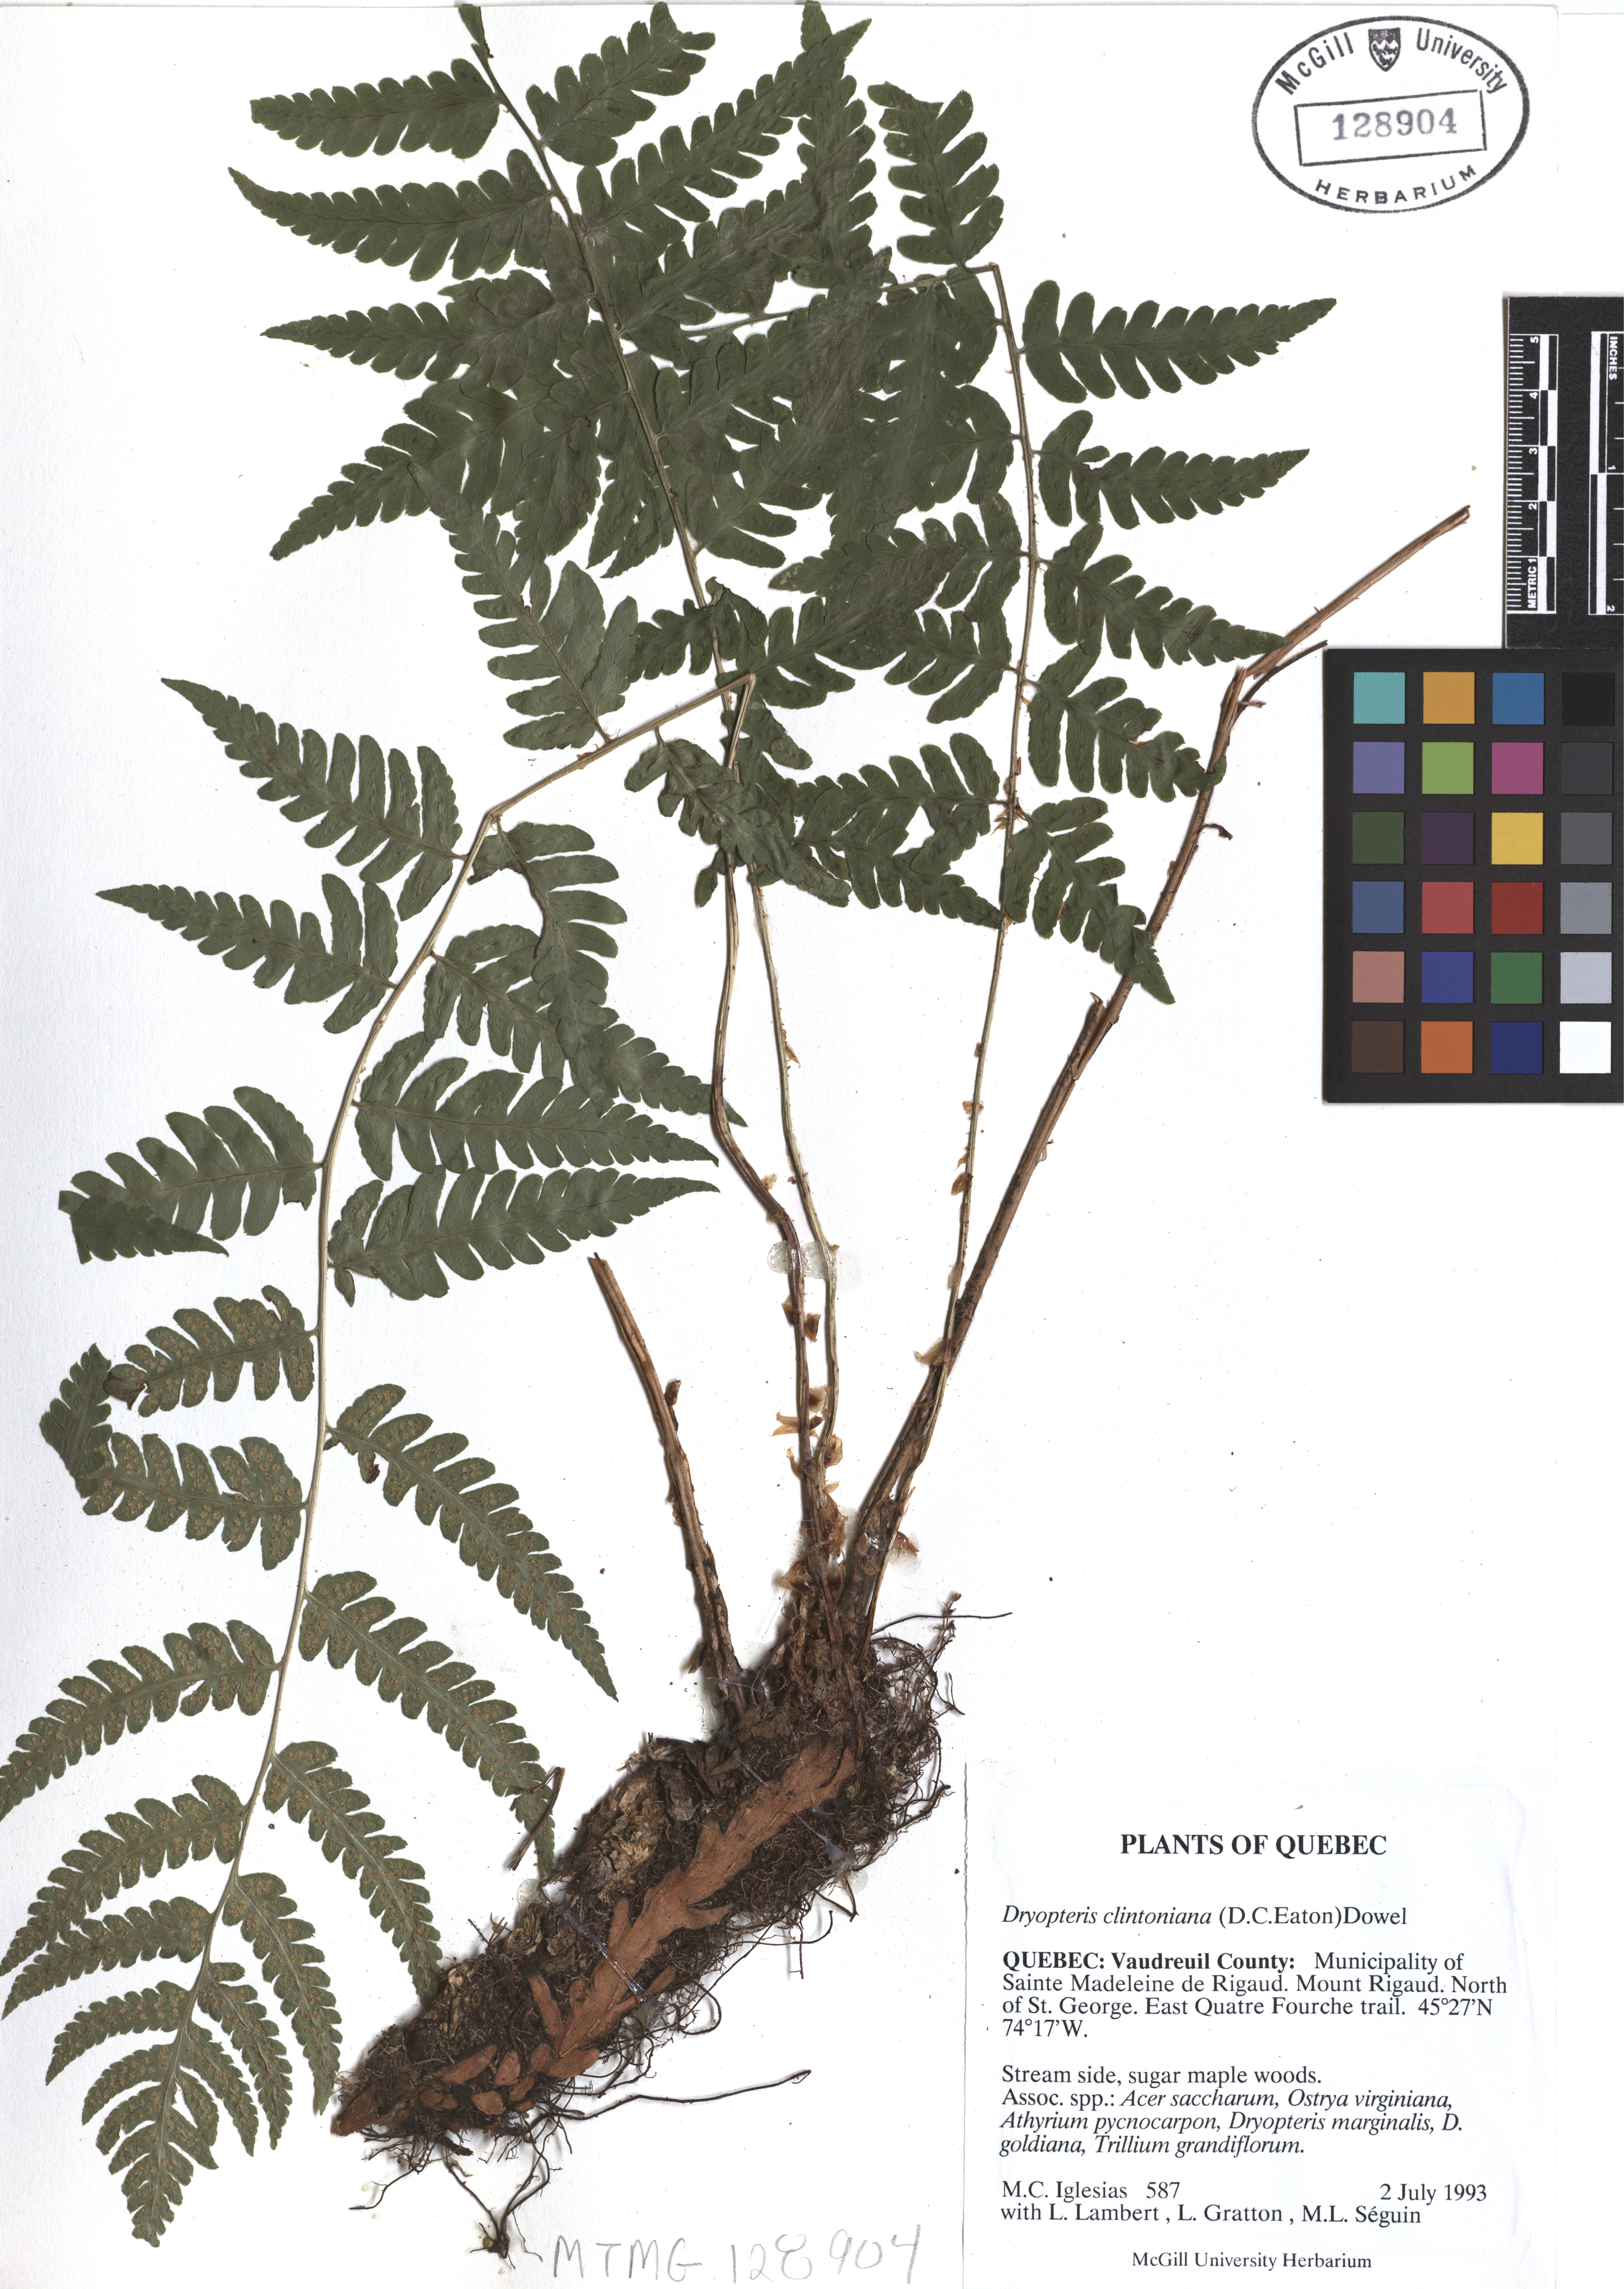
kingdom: Plantae
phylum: Tracheophyta
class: Polypodiopsida
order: Polypodiales
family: Dryopteridaceae
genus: Dryopteris
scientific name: Dryopteris clintoniana
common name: Clinton's wood fern
